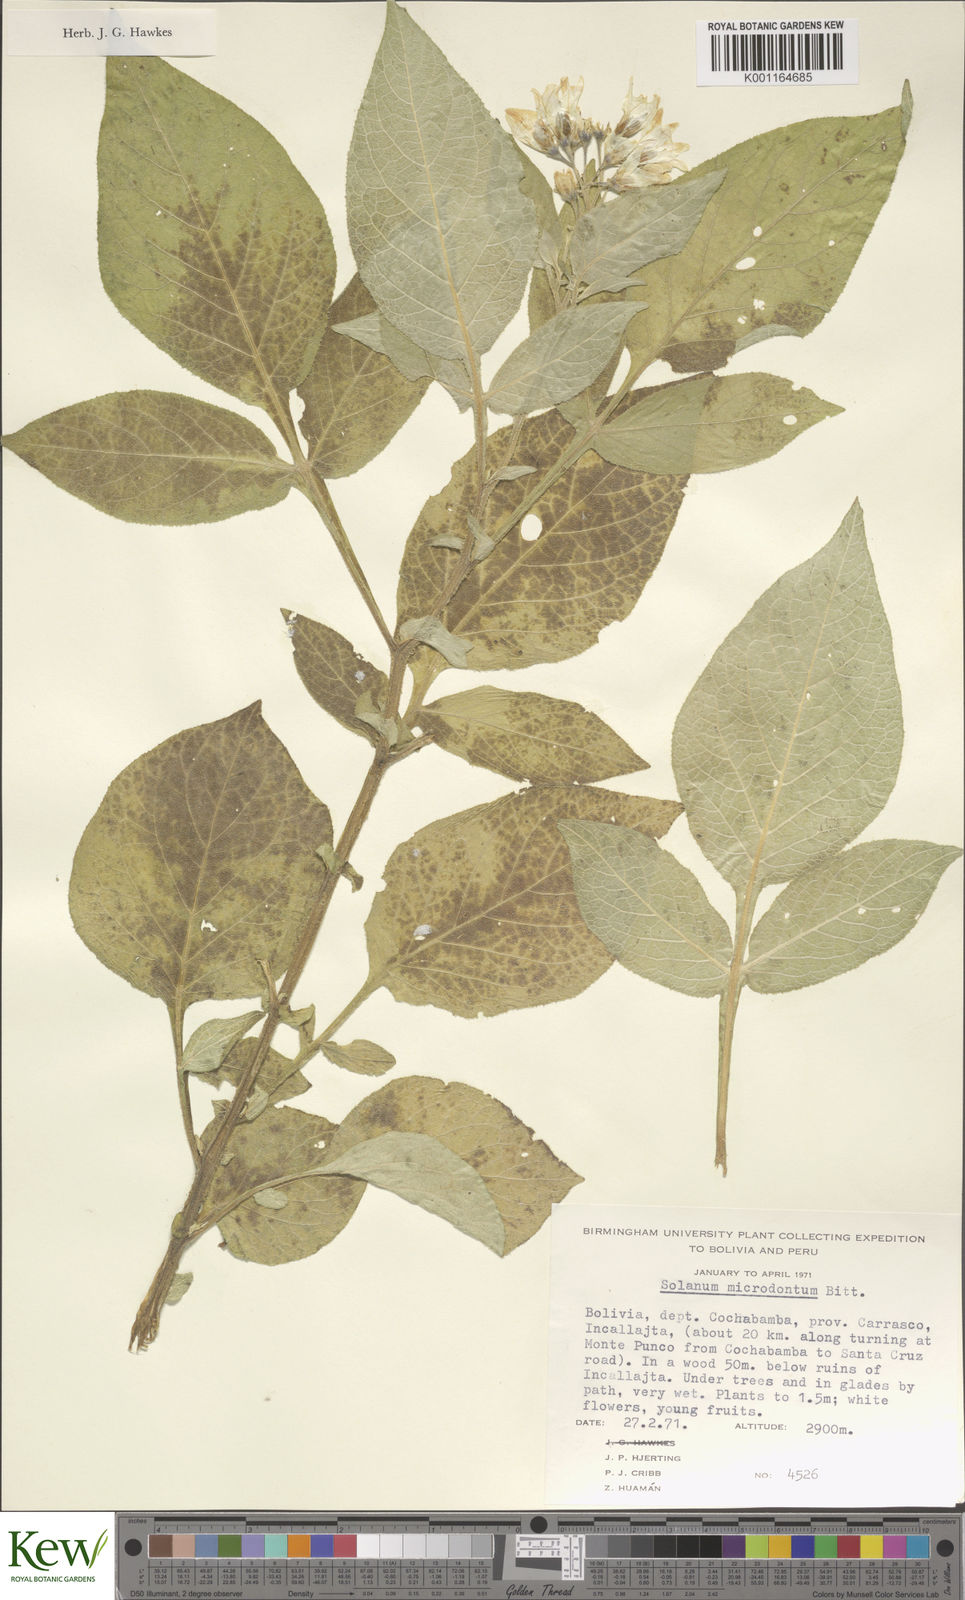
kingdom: Plantae
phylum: Tracheophyta
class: Magnoliopsida
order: Solanales
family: Solanaceae
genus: Solanum
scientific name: Solanum microdontum
